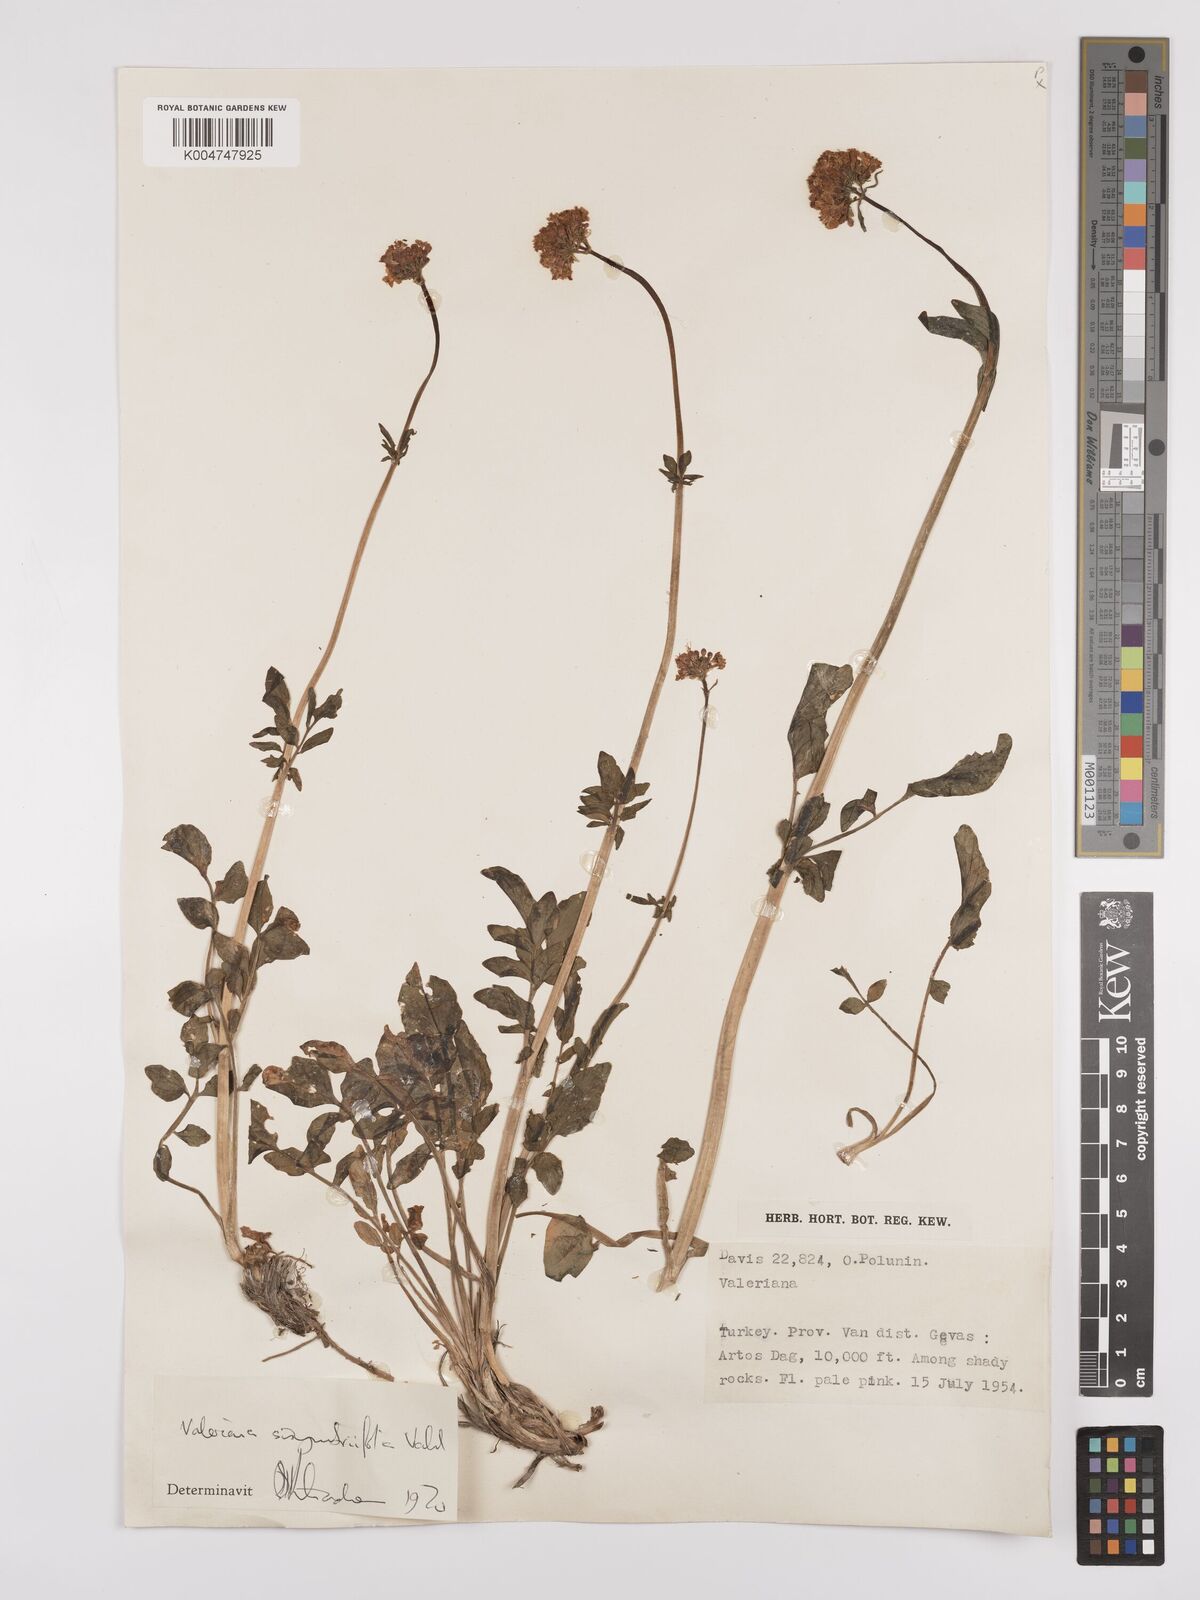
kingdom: Plantae
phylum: Tracheophyta
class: Magnoliopsida
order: Dipsacales
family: Caprifoliaceae
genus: Valeriana
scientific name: Valeriana
